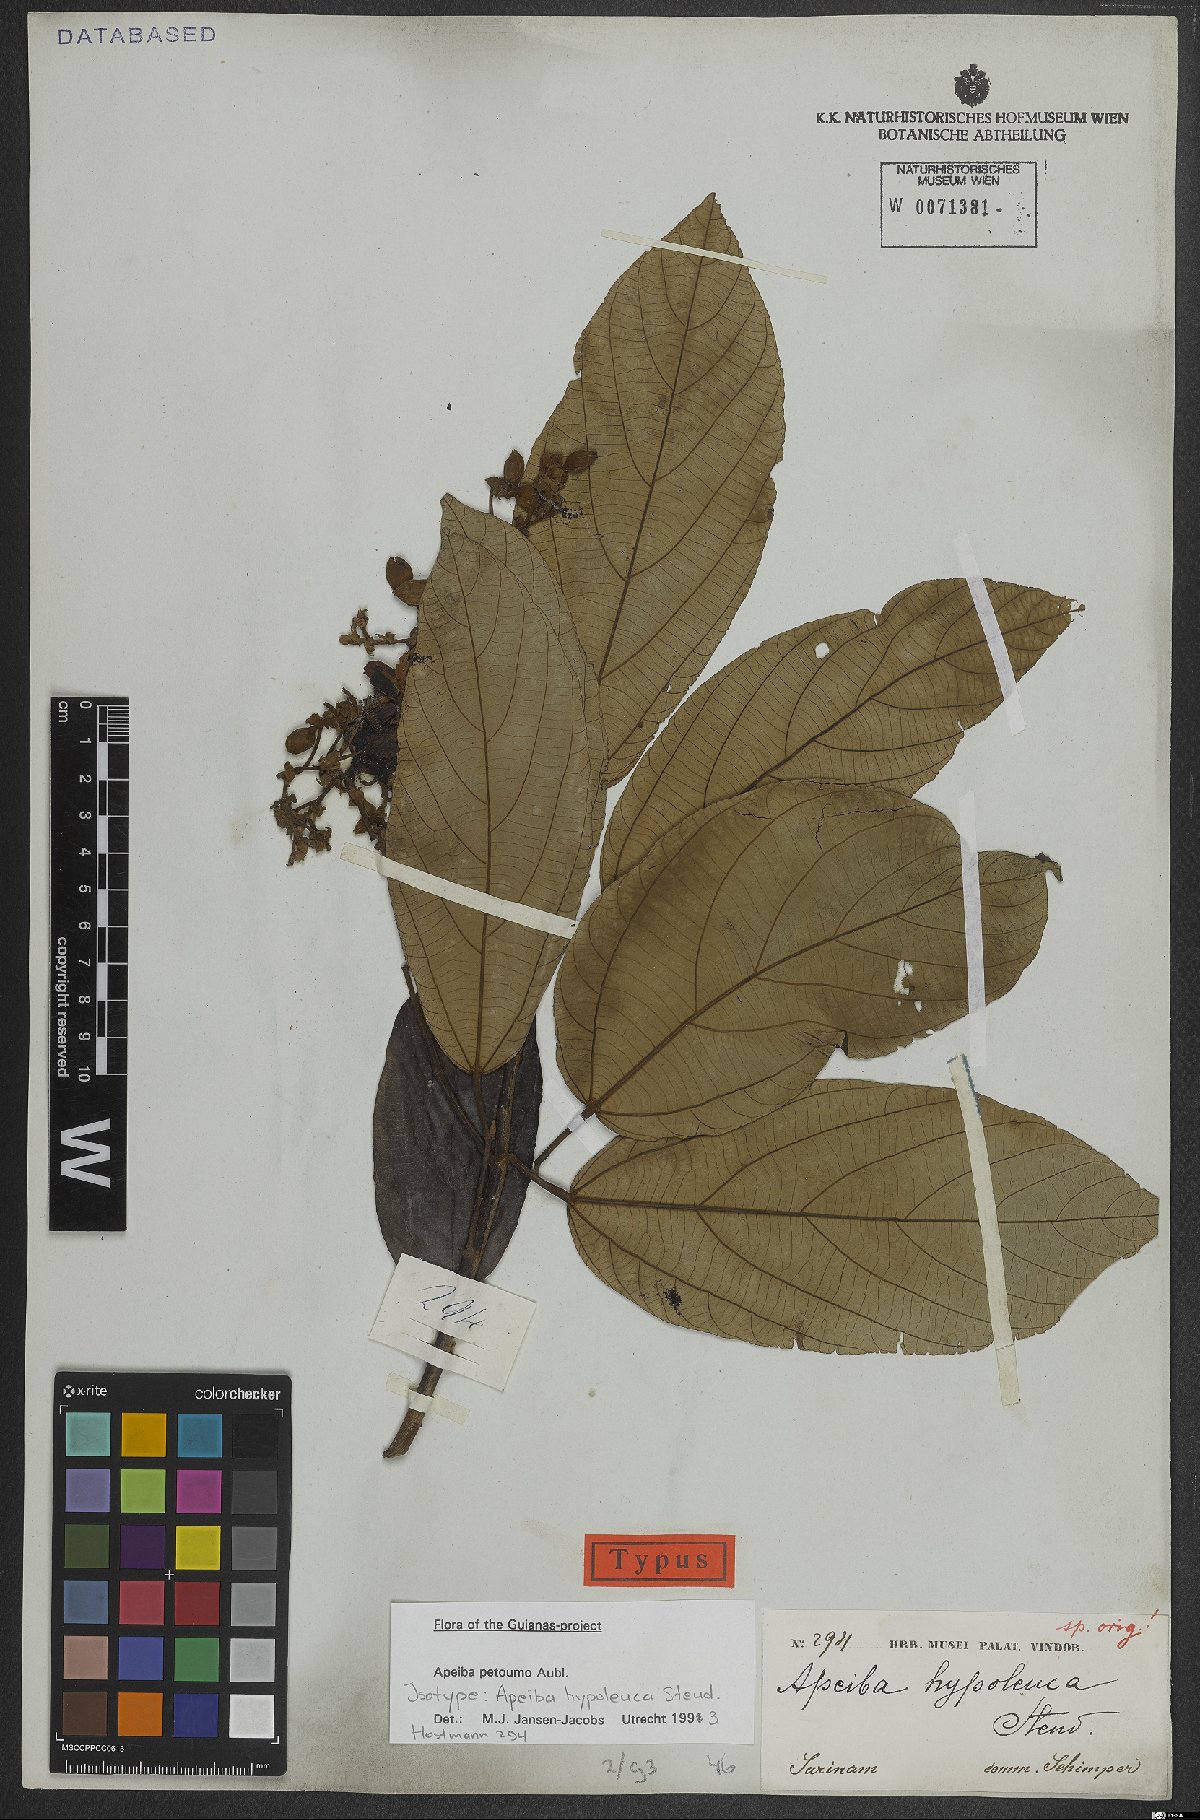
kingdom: Plantae
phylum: Tracheophyta
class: Magnoliopsida
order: Malvales
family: Malvaceae
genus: Apeiba
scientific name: Apeiba petoumo
